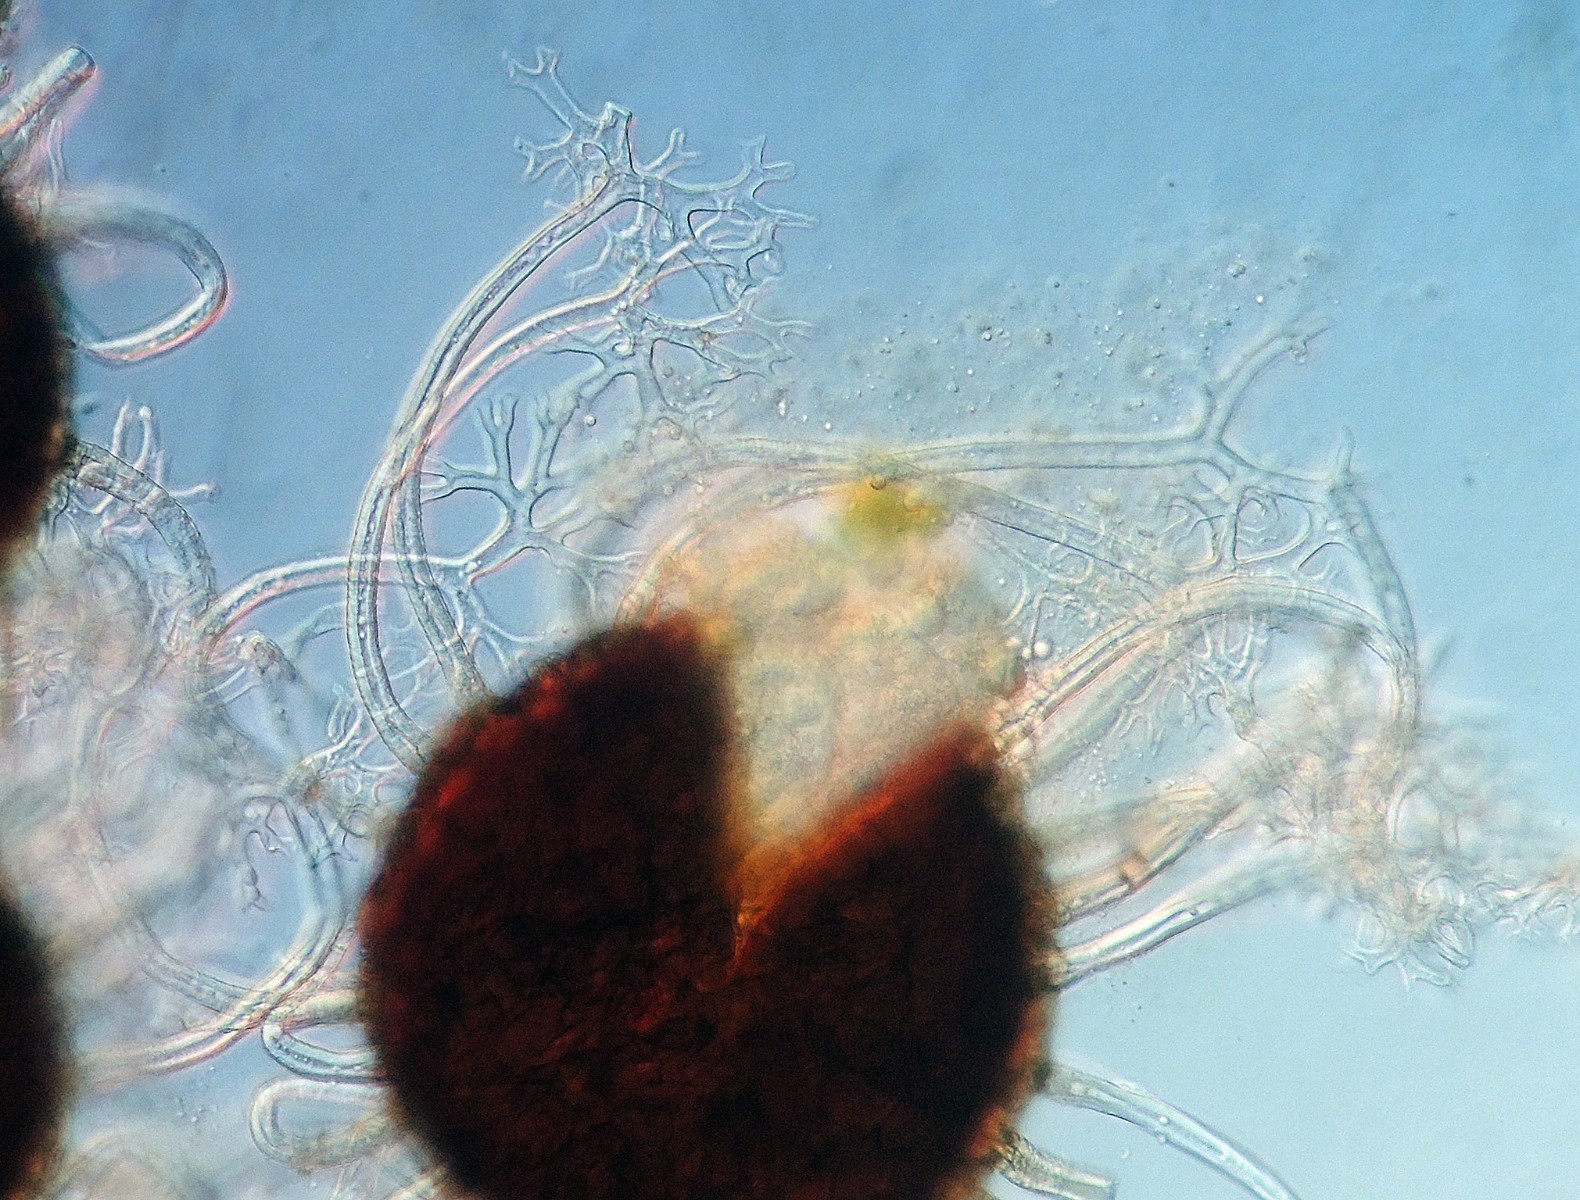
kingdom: Fungi
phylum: Ascomycota
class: Leotiomycetes
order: Helotiales
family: Erysiphaceae
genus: Erysiphe
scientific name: Erysiphe vanbruntiana
